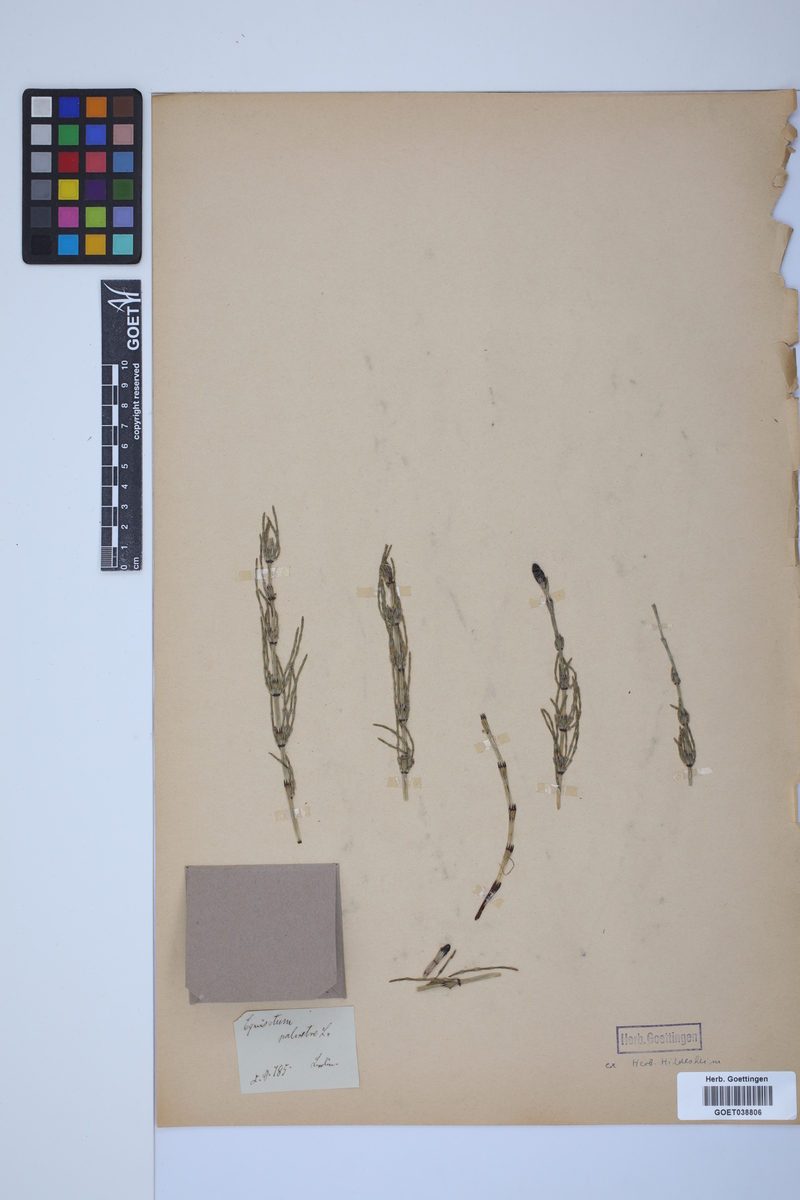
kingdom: Plantae
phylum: Tracheophyta
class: Polypodiopsida
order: Equisetales
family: Equisetaceae
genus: Equisetum
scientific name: Equisetum palustre
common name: Marsh horsetail
